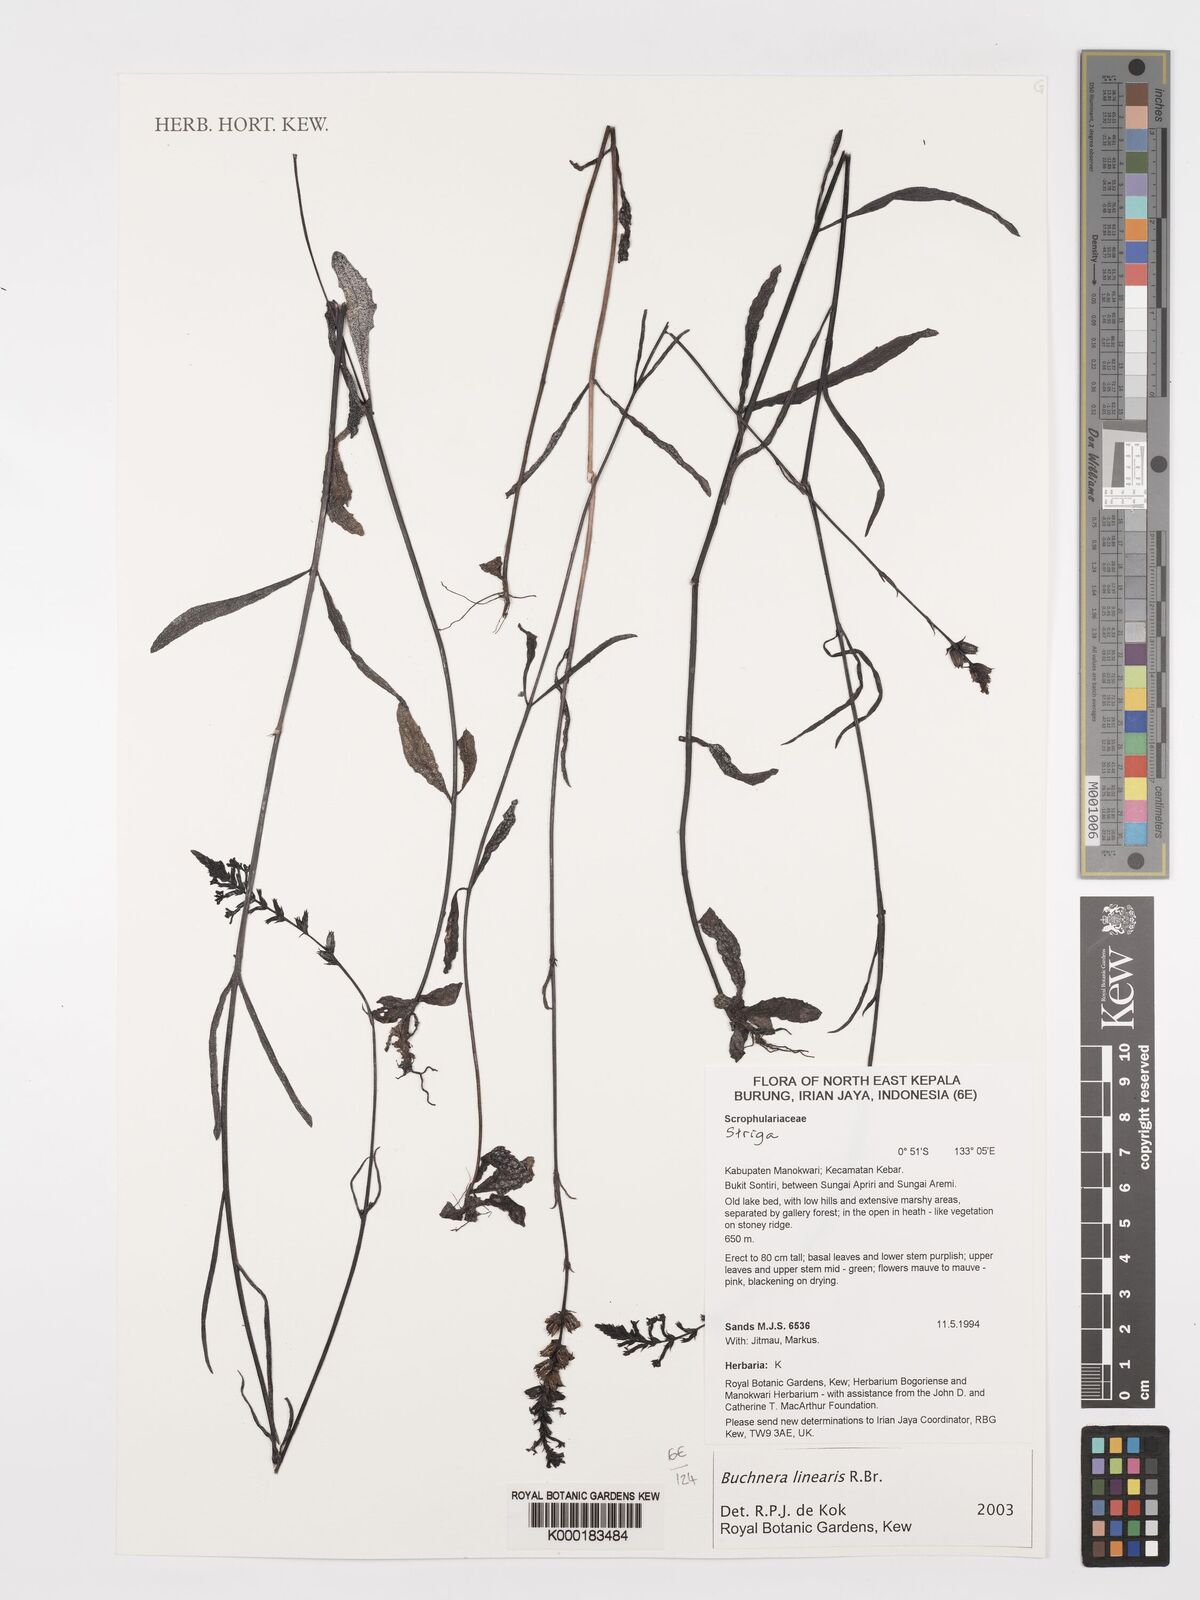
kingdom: Plantae
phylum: Tracheophyta
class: Magnoliopsida
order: Lamiales
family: Plantaginaceae
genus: Limnophila
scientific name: Limnophila erecta
